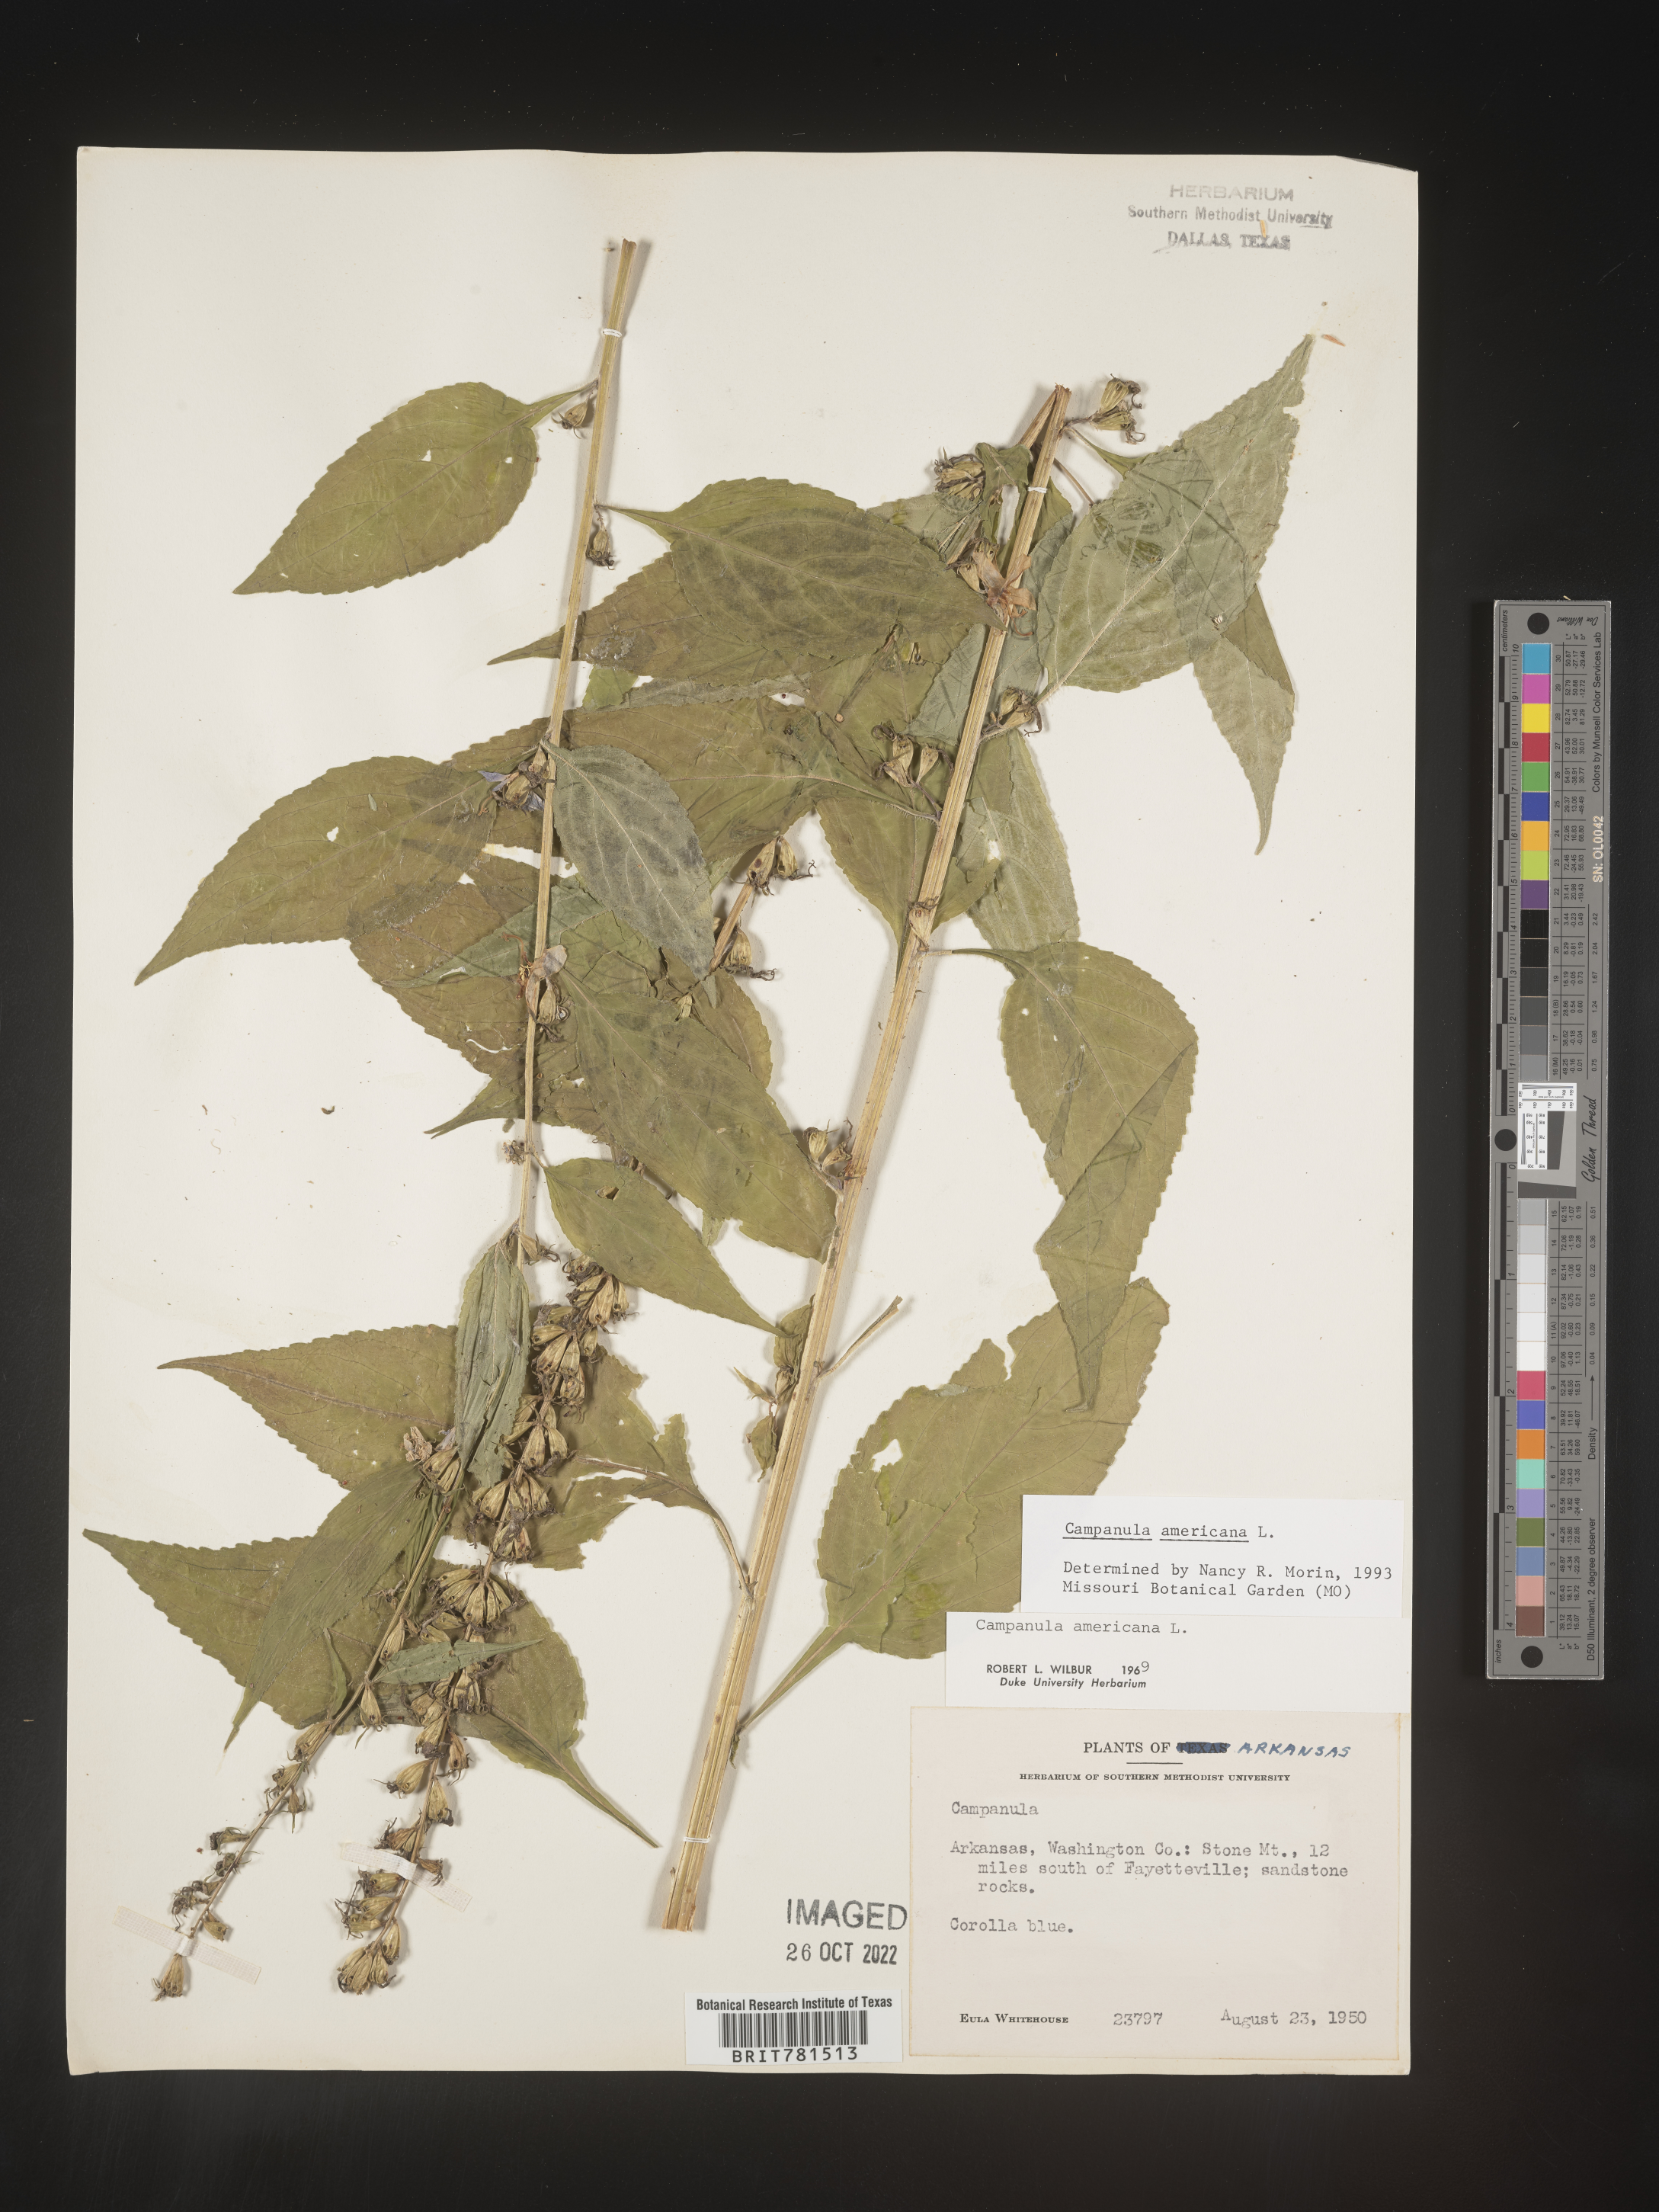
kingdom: Plantae
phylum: Tracheophyta
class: Magnoliopsida
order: Asterales
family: Campanulaceae
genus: Campanula
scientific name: Campanula americana
